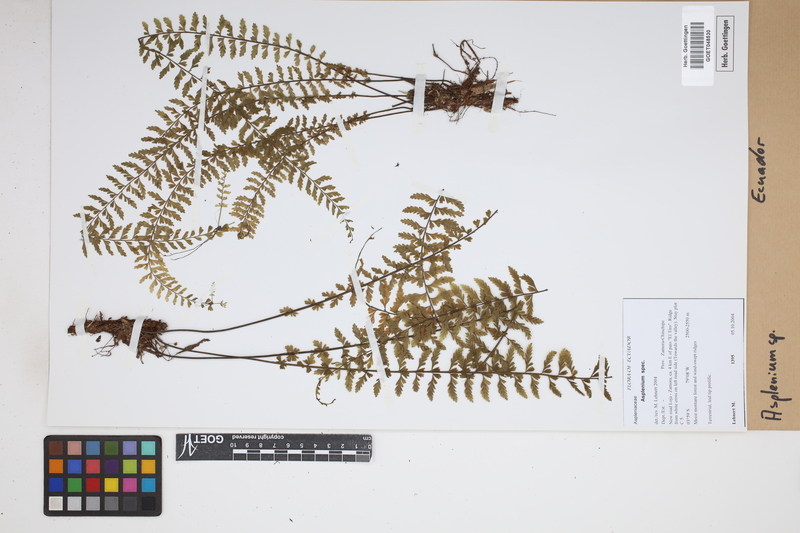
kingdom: Plantae
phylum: Tracheophyta
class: Polypodiopsida
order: Polypodiales
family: Aspleniaceae
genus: Asplenium
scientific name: Asplenium
